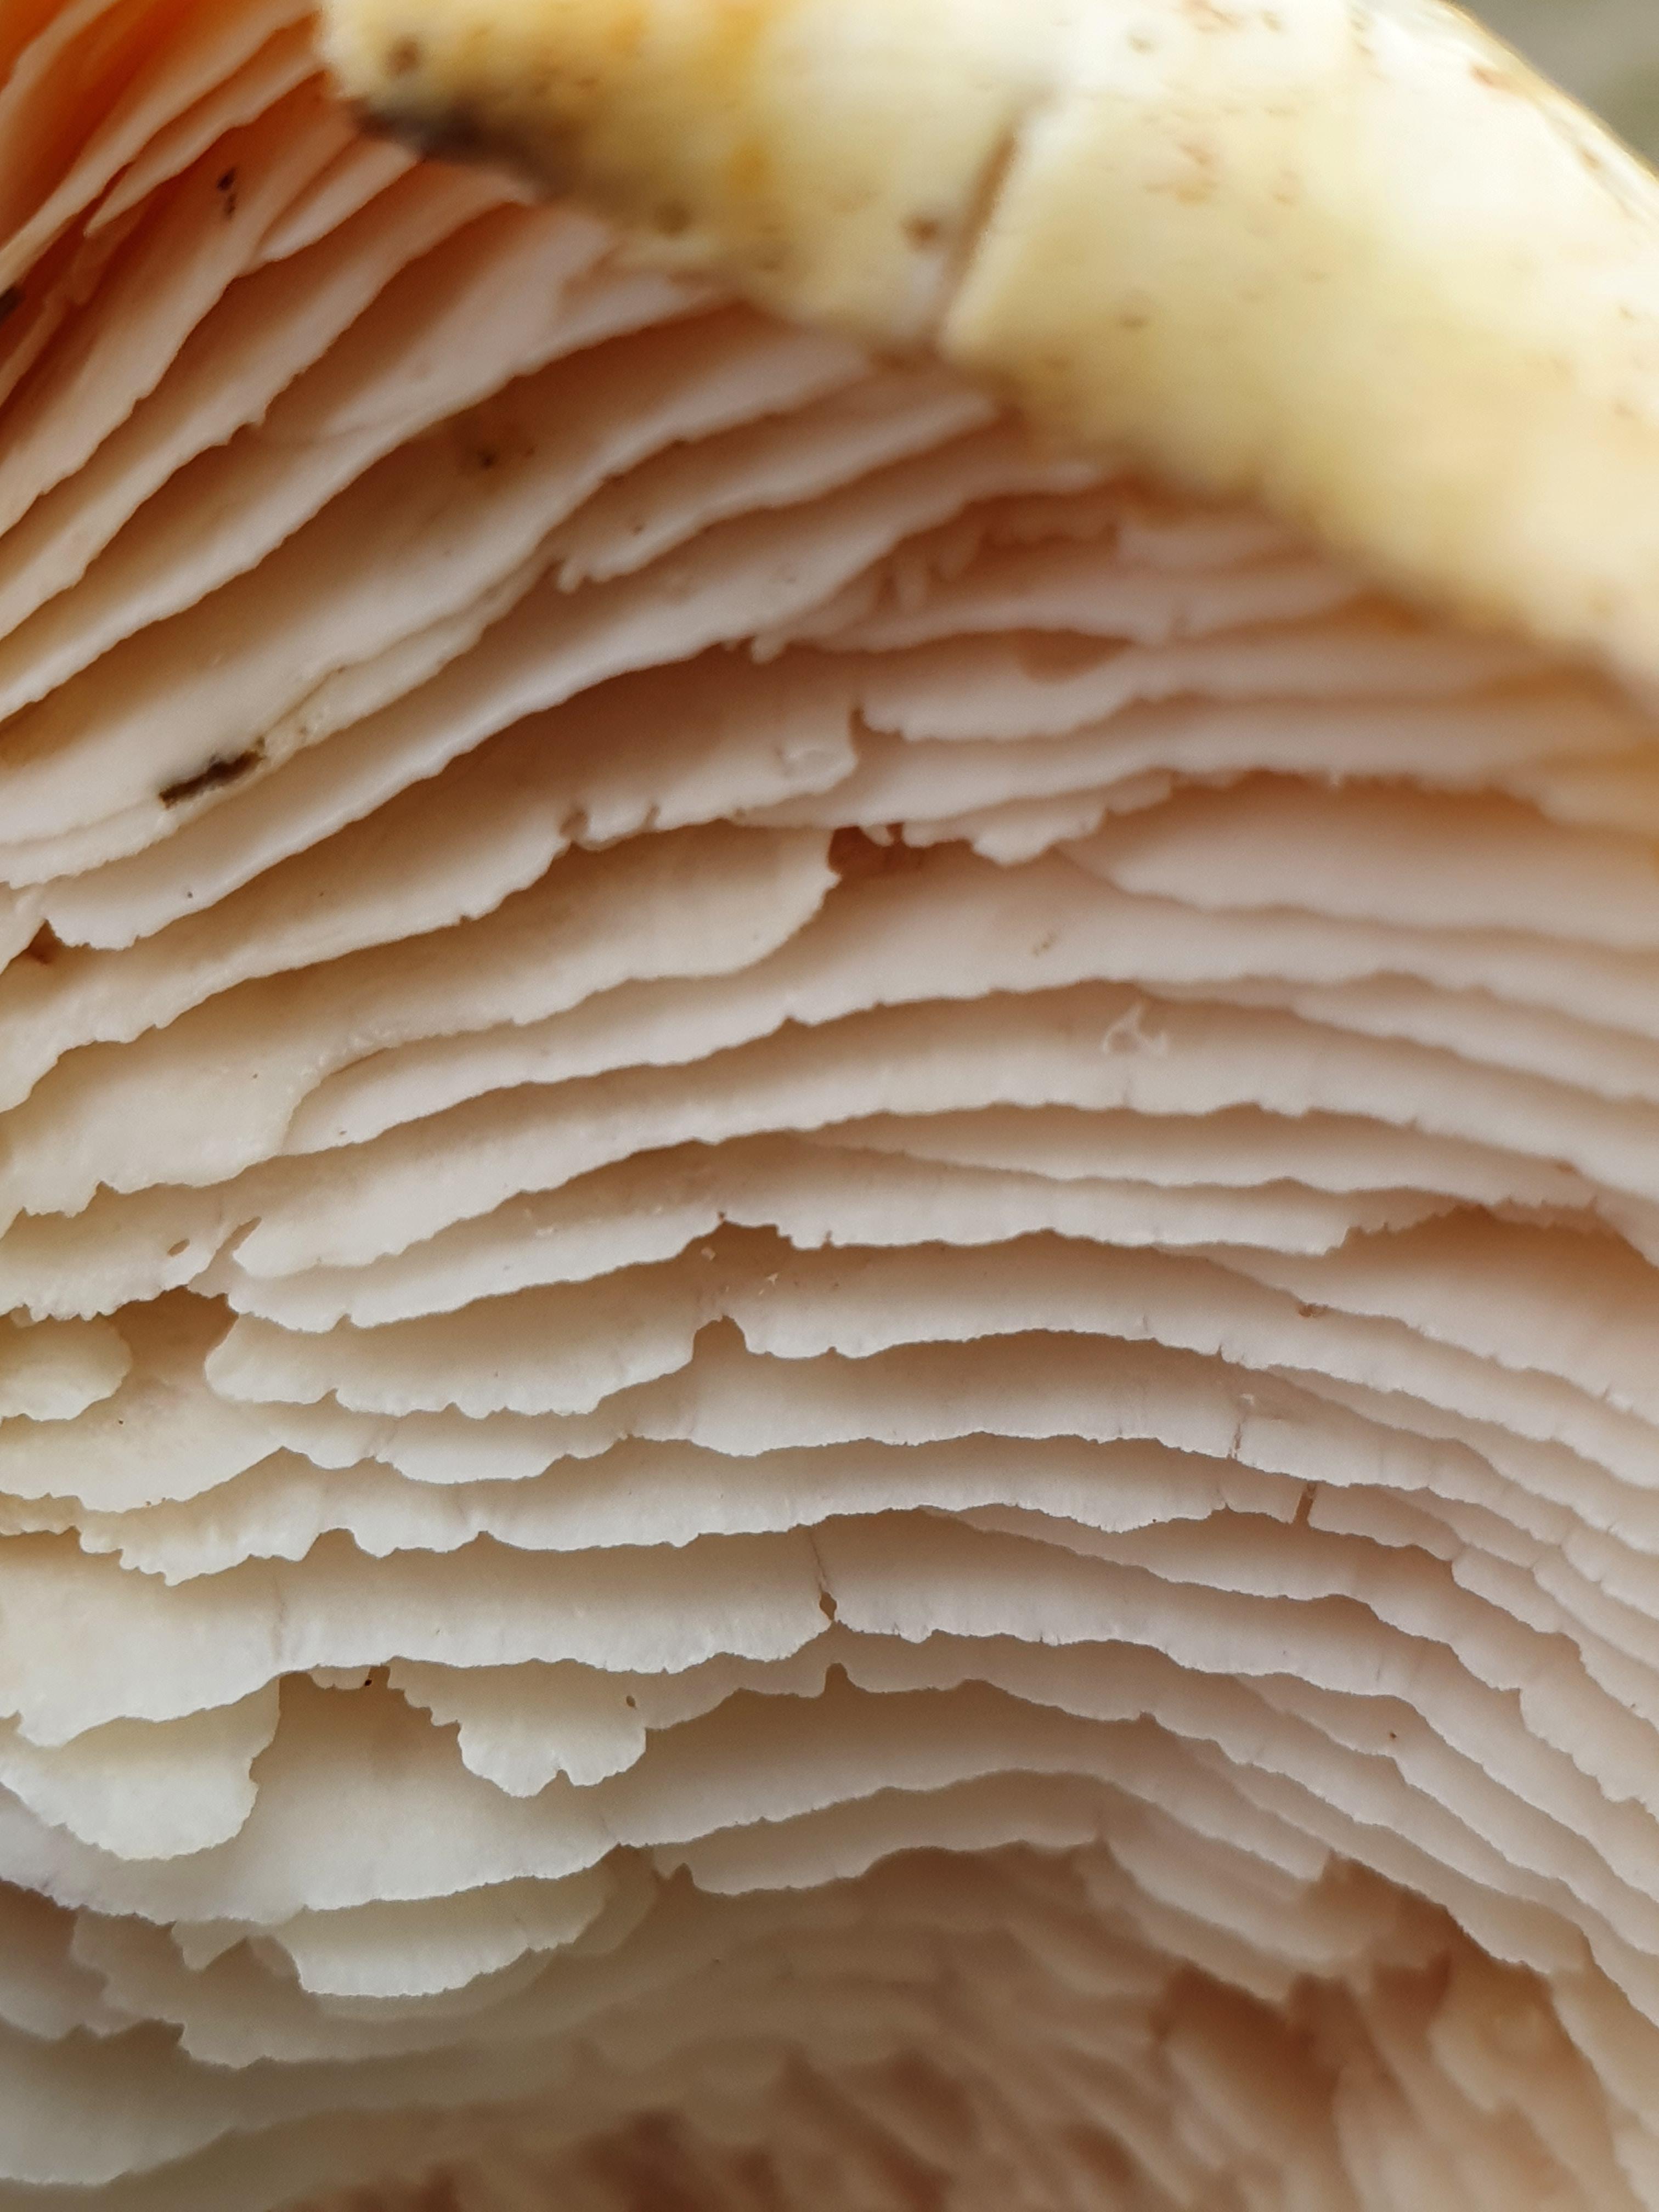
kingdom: Fungi
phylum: Basidiomycota
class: Agaricomycetes
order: Gloeophyllales
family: Gloeophyllaceae
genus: Neolentinus
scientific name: Neolentinus lepideus
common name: skællet sejhat
